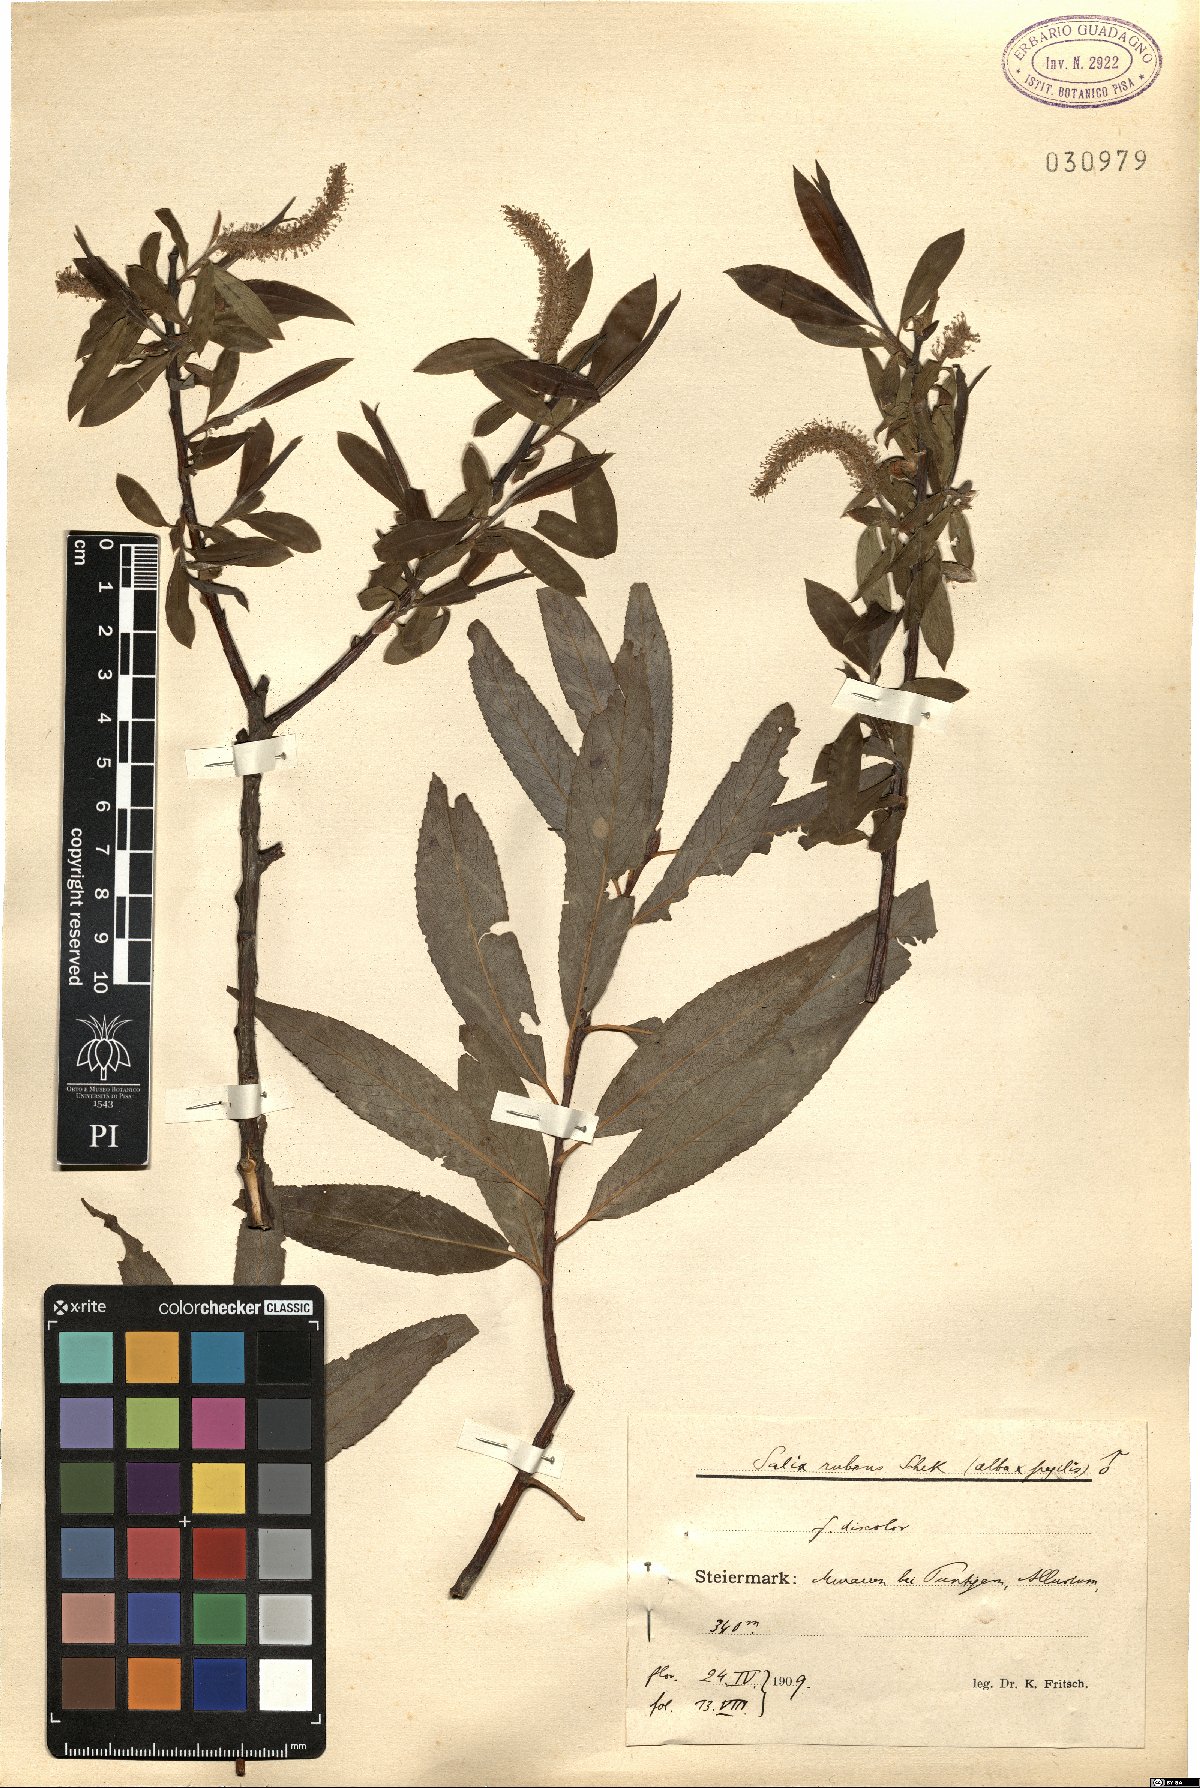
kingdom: Plantae
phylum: Tracheophyta
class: Magnoliopsida
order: Malpighiales
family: Salicaceae
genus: Salix
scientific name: Salix rubens
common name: Hybrid crack willow
